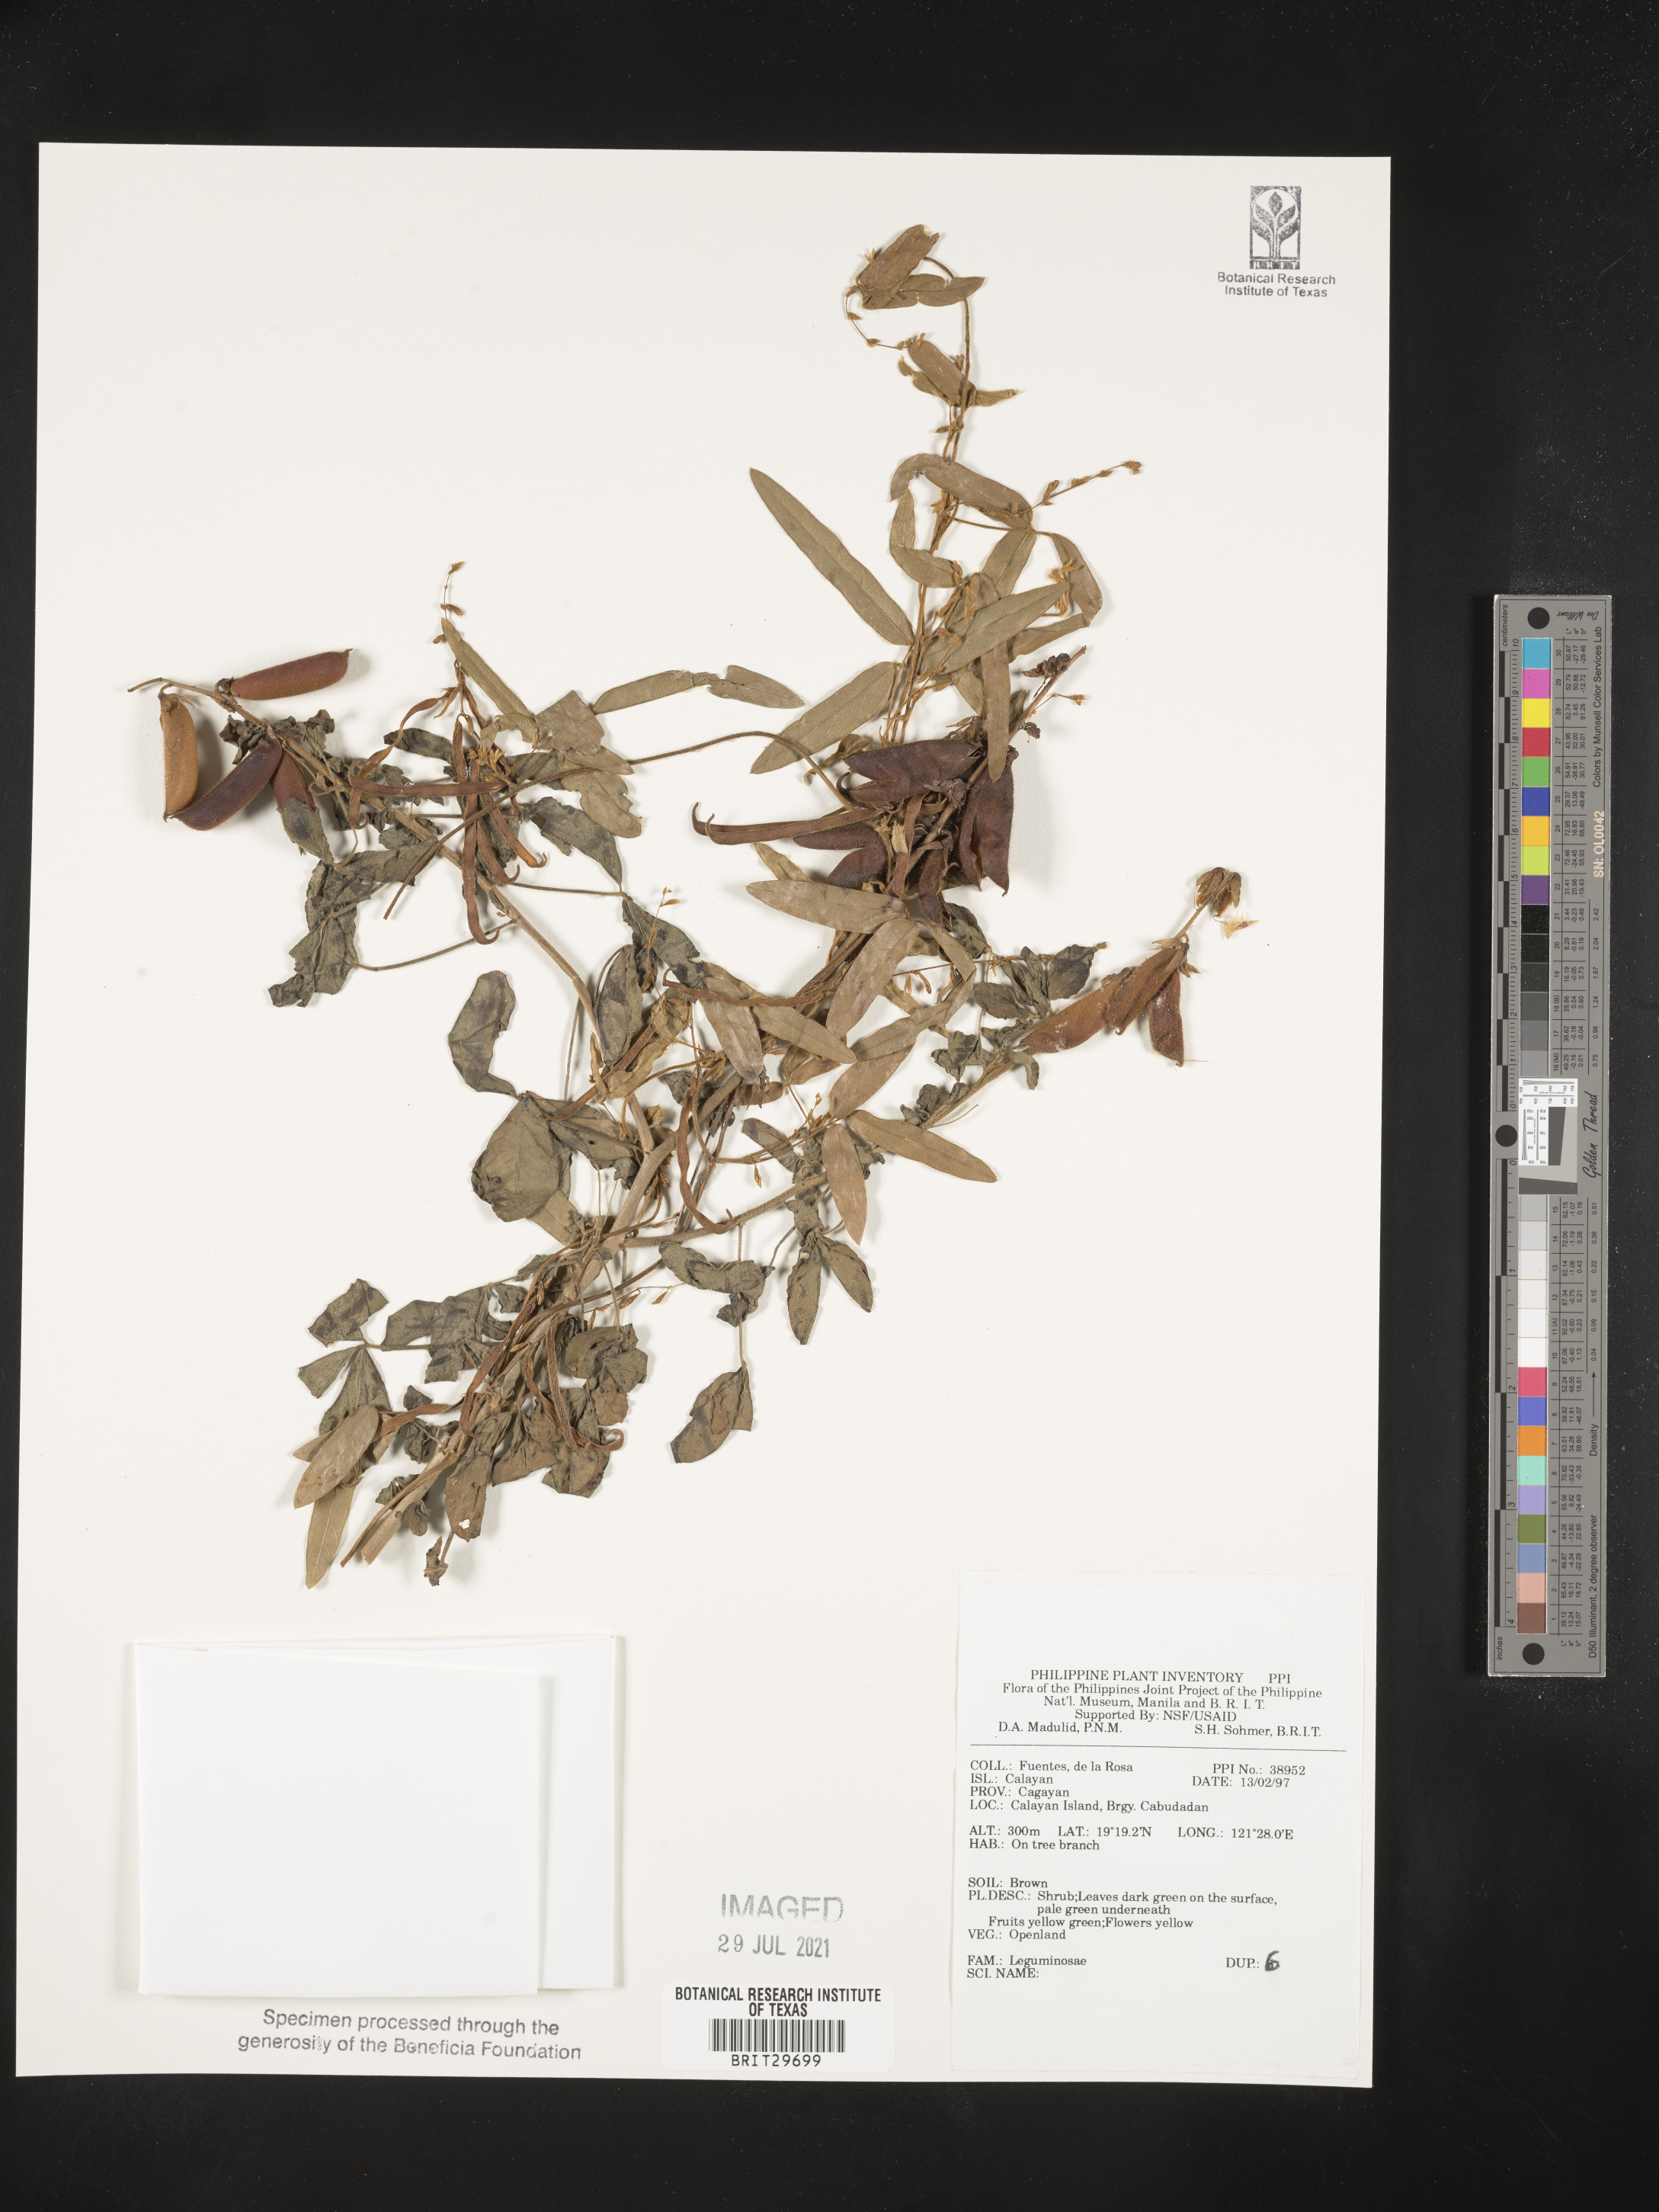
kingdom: Plantae
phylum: Tracheophyta
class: Magnoliopsida
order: Fabales
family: Fabaceae
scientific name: Fabaceae
